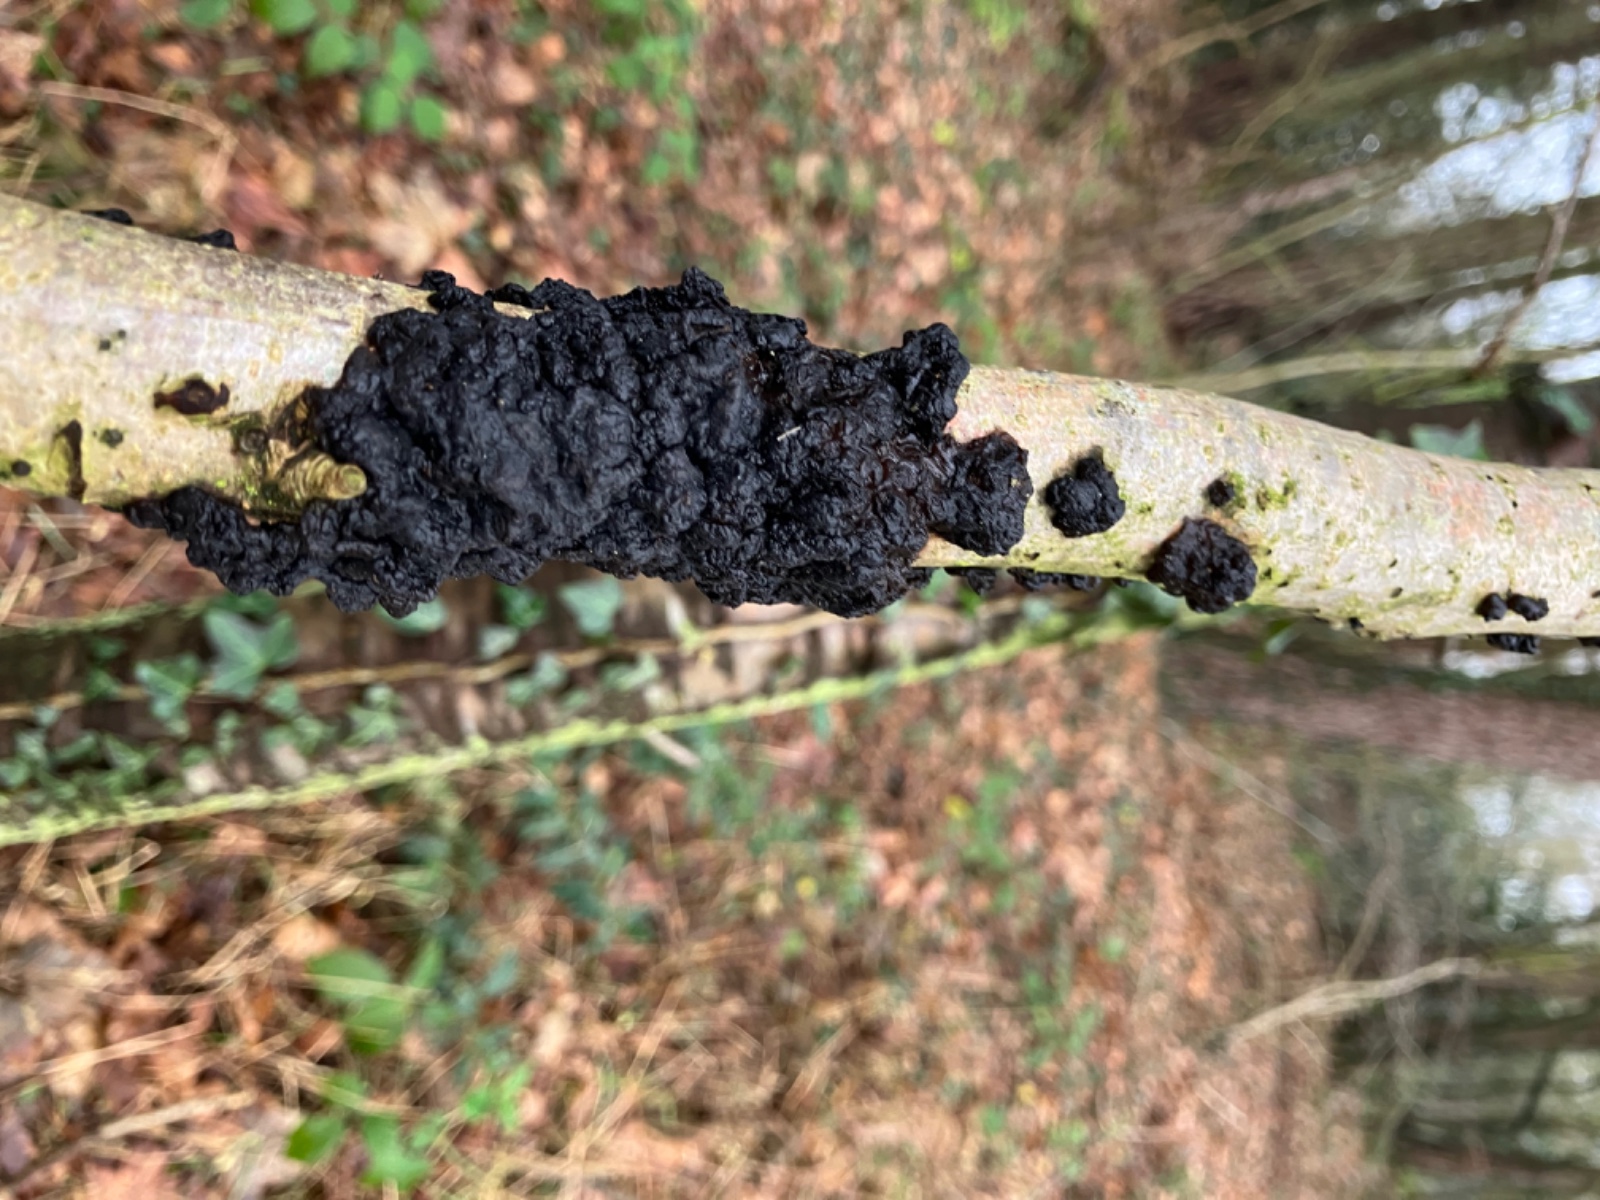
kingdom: Fungi
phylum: Basidiomycota
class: Agaricomycetes
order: Auriculariales
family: Auriculariaceae
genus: Exidia
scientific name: Exidia nigricans
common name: almindelig bævretop
